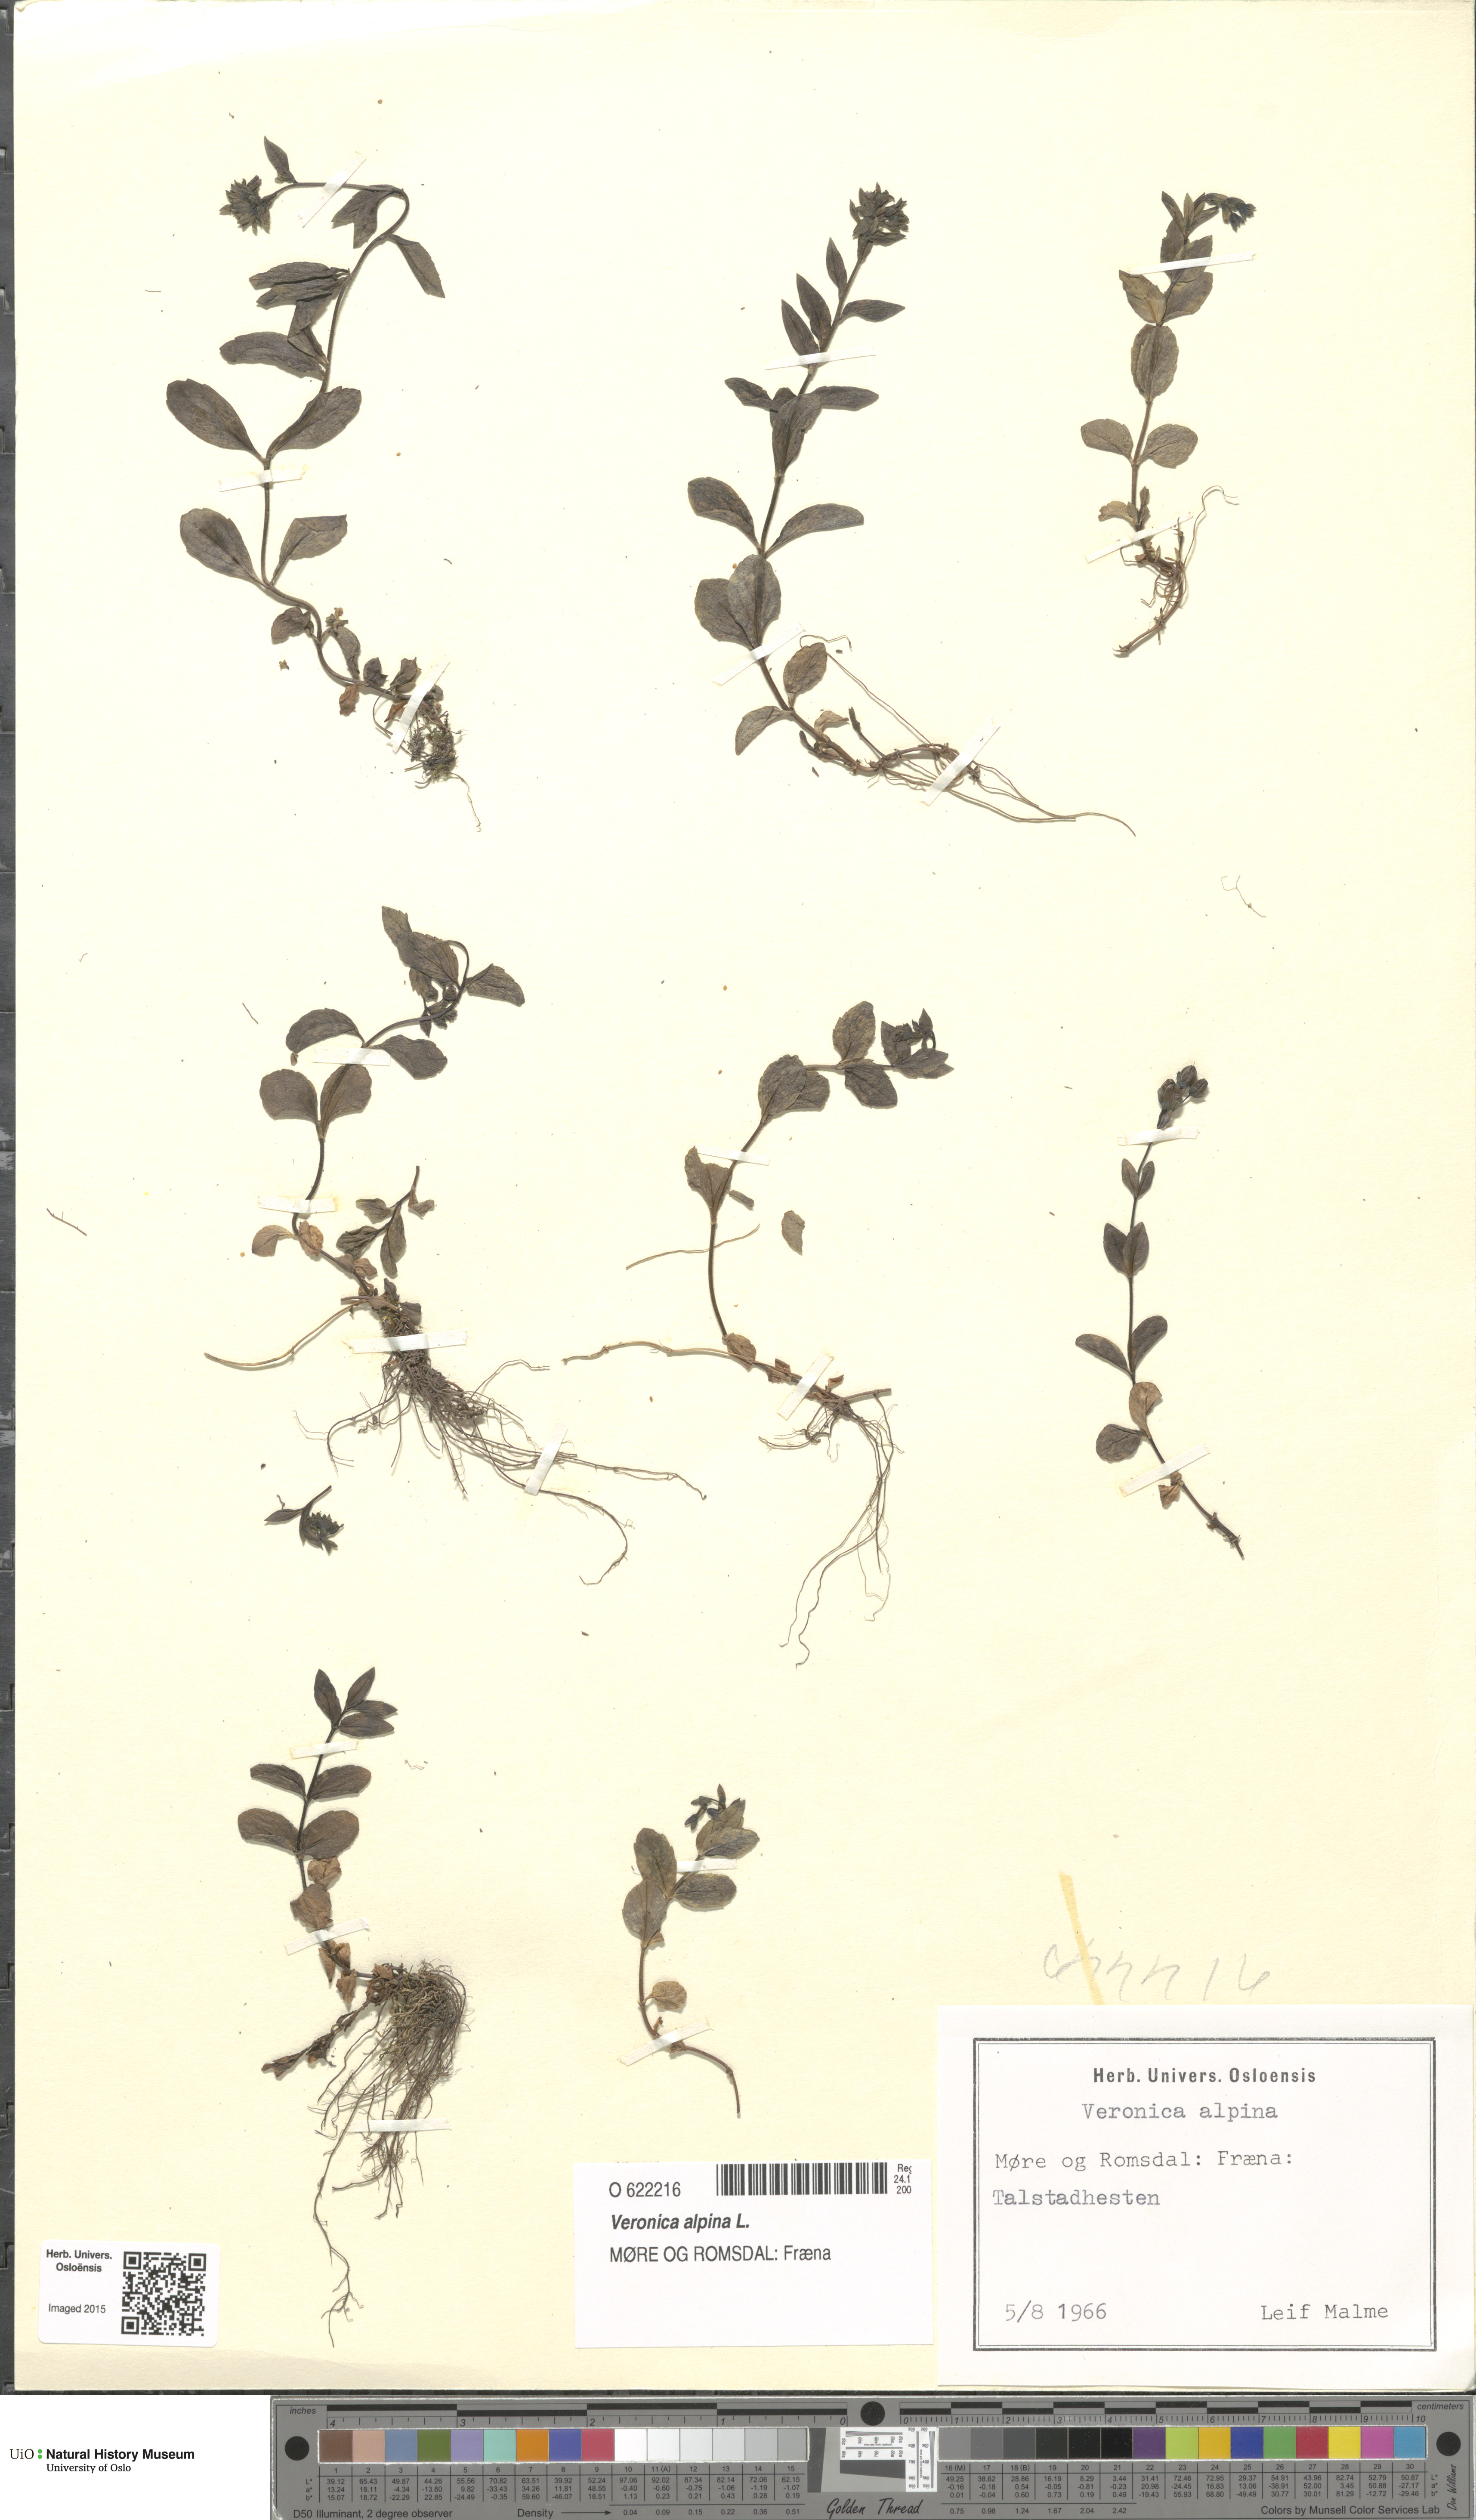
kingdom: Plantae
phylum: Tracheophyta
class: Magnoliopsida
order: Lamiales
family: Plantaginaceae
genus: Veronica
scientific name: Veronica alpina
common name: Alpine speedwell
